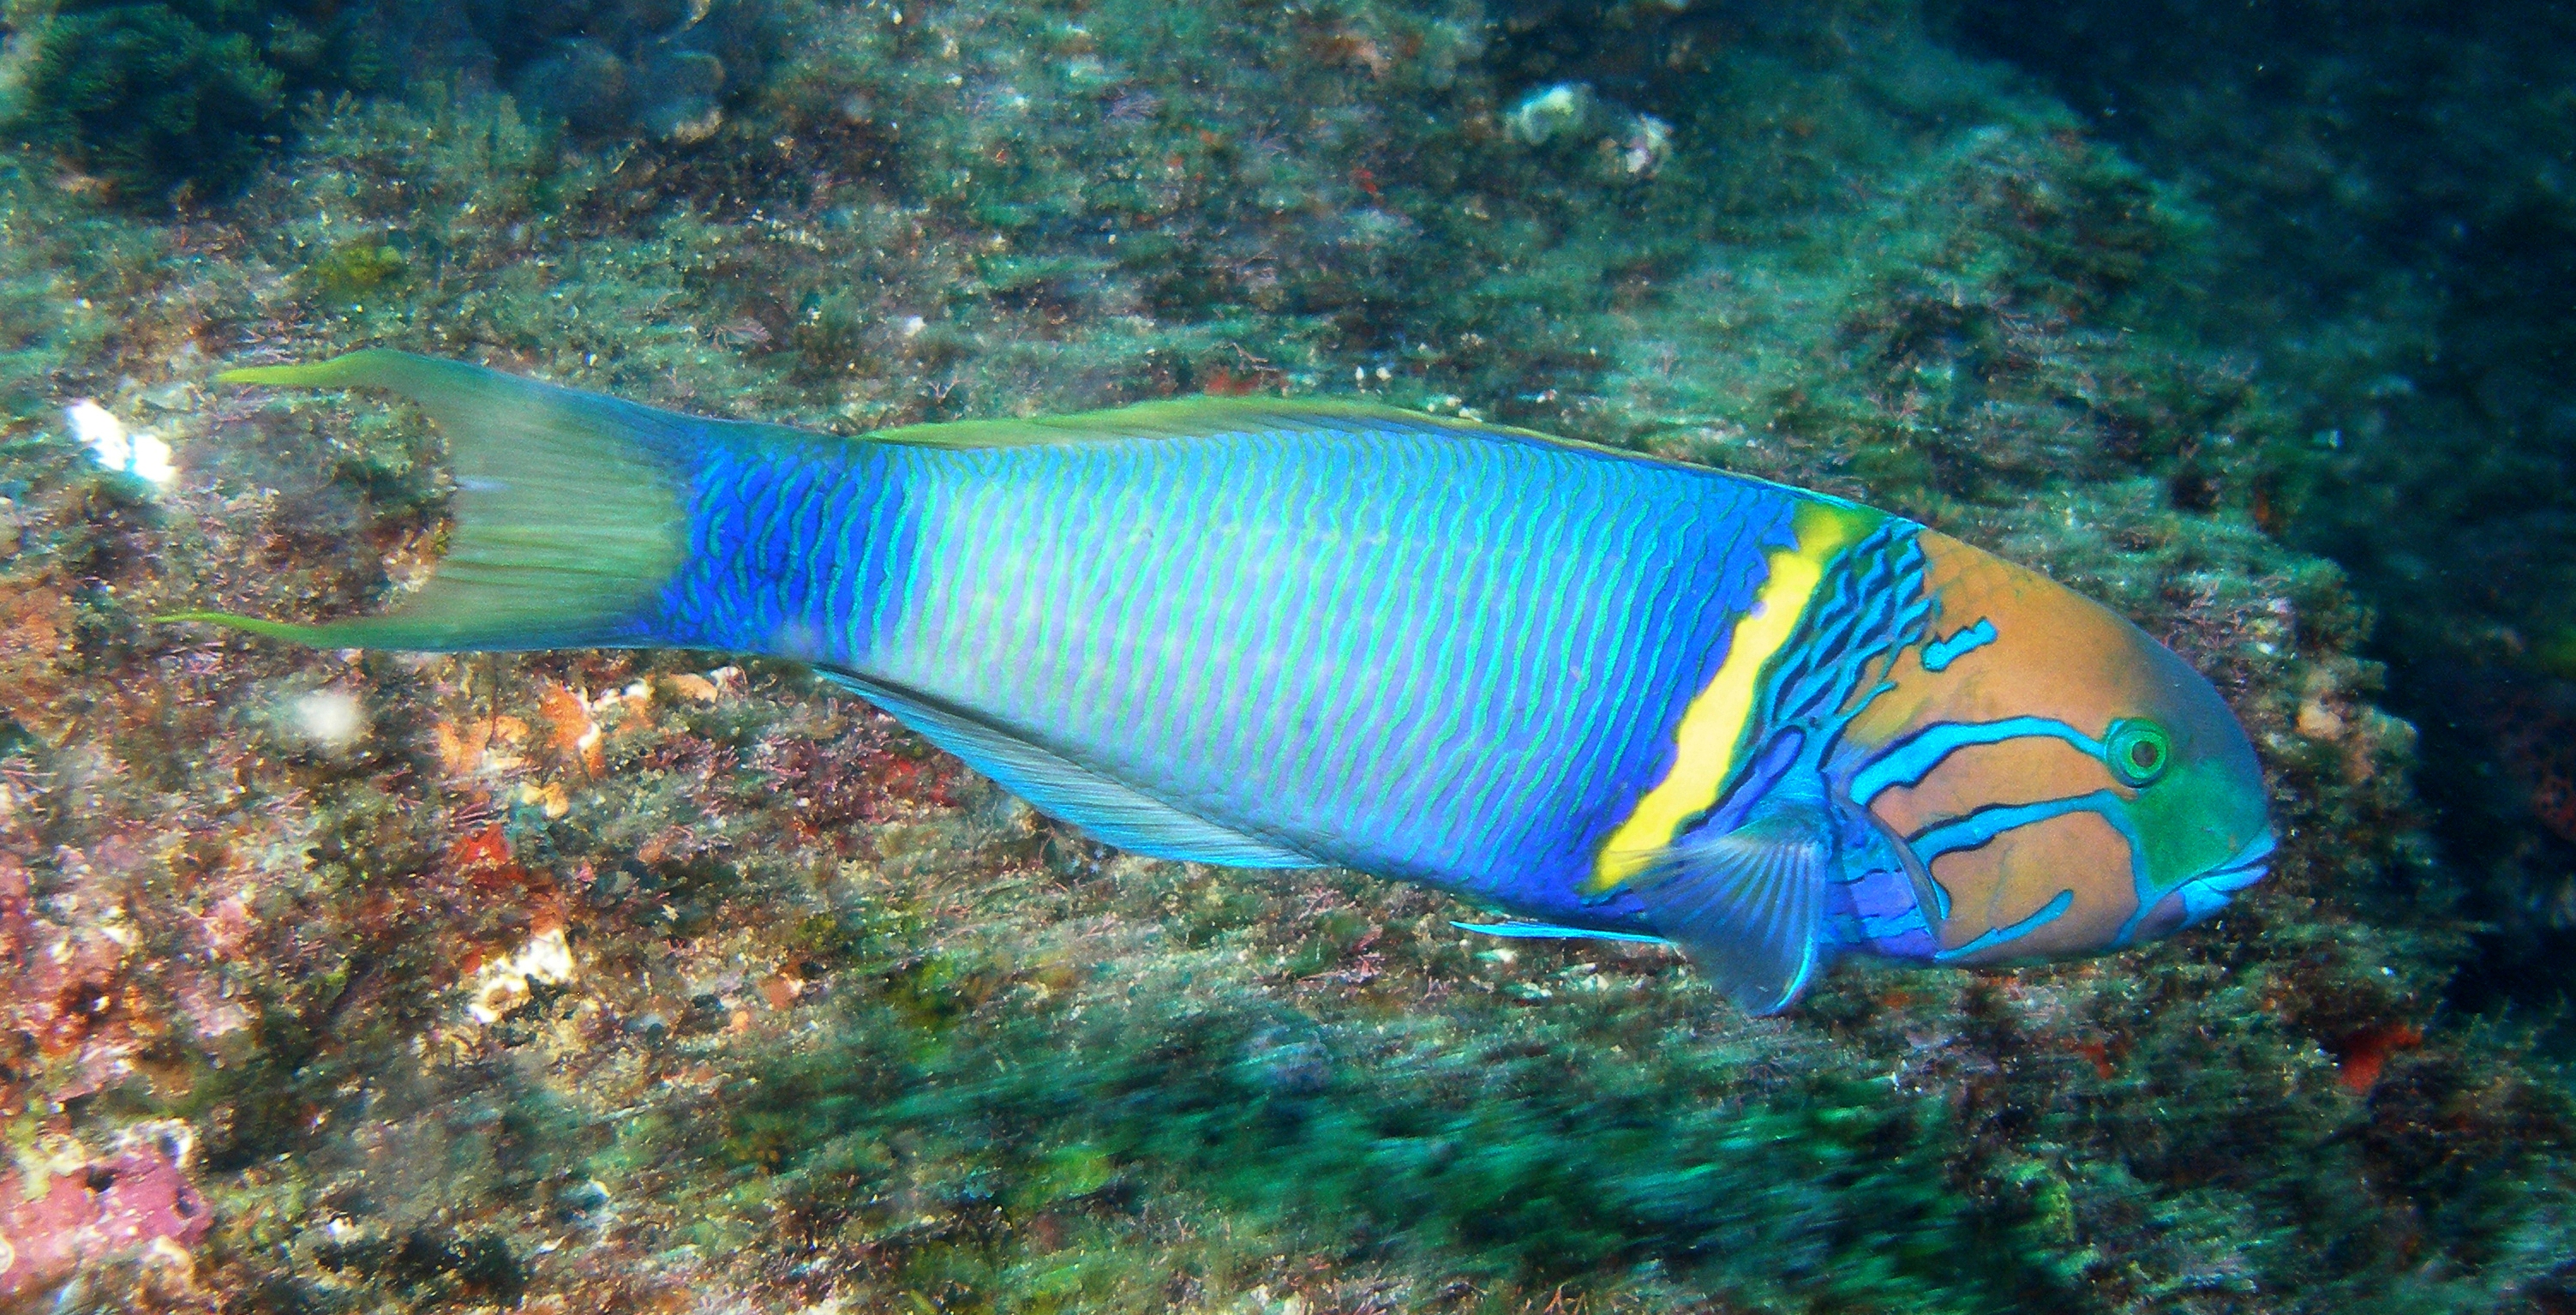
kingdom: Animalia
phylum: Chordata
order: Perciformes
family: Labridae
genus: Thalassoma
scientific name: Thalassoma hebraicum
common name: Goldbar wrasse
